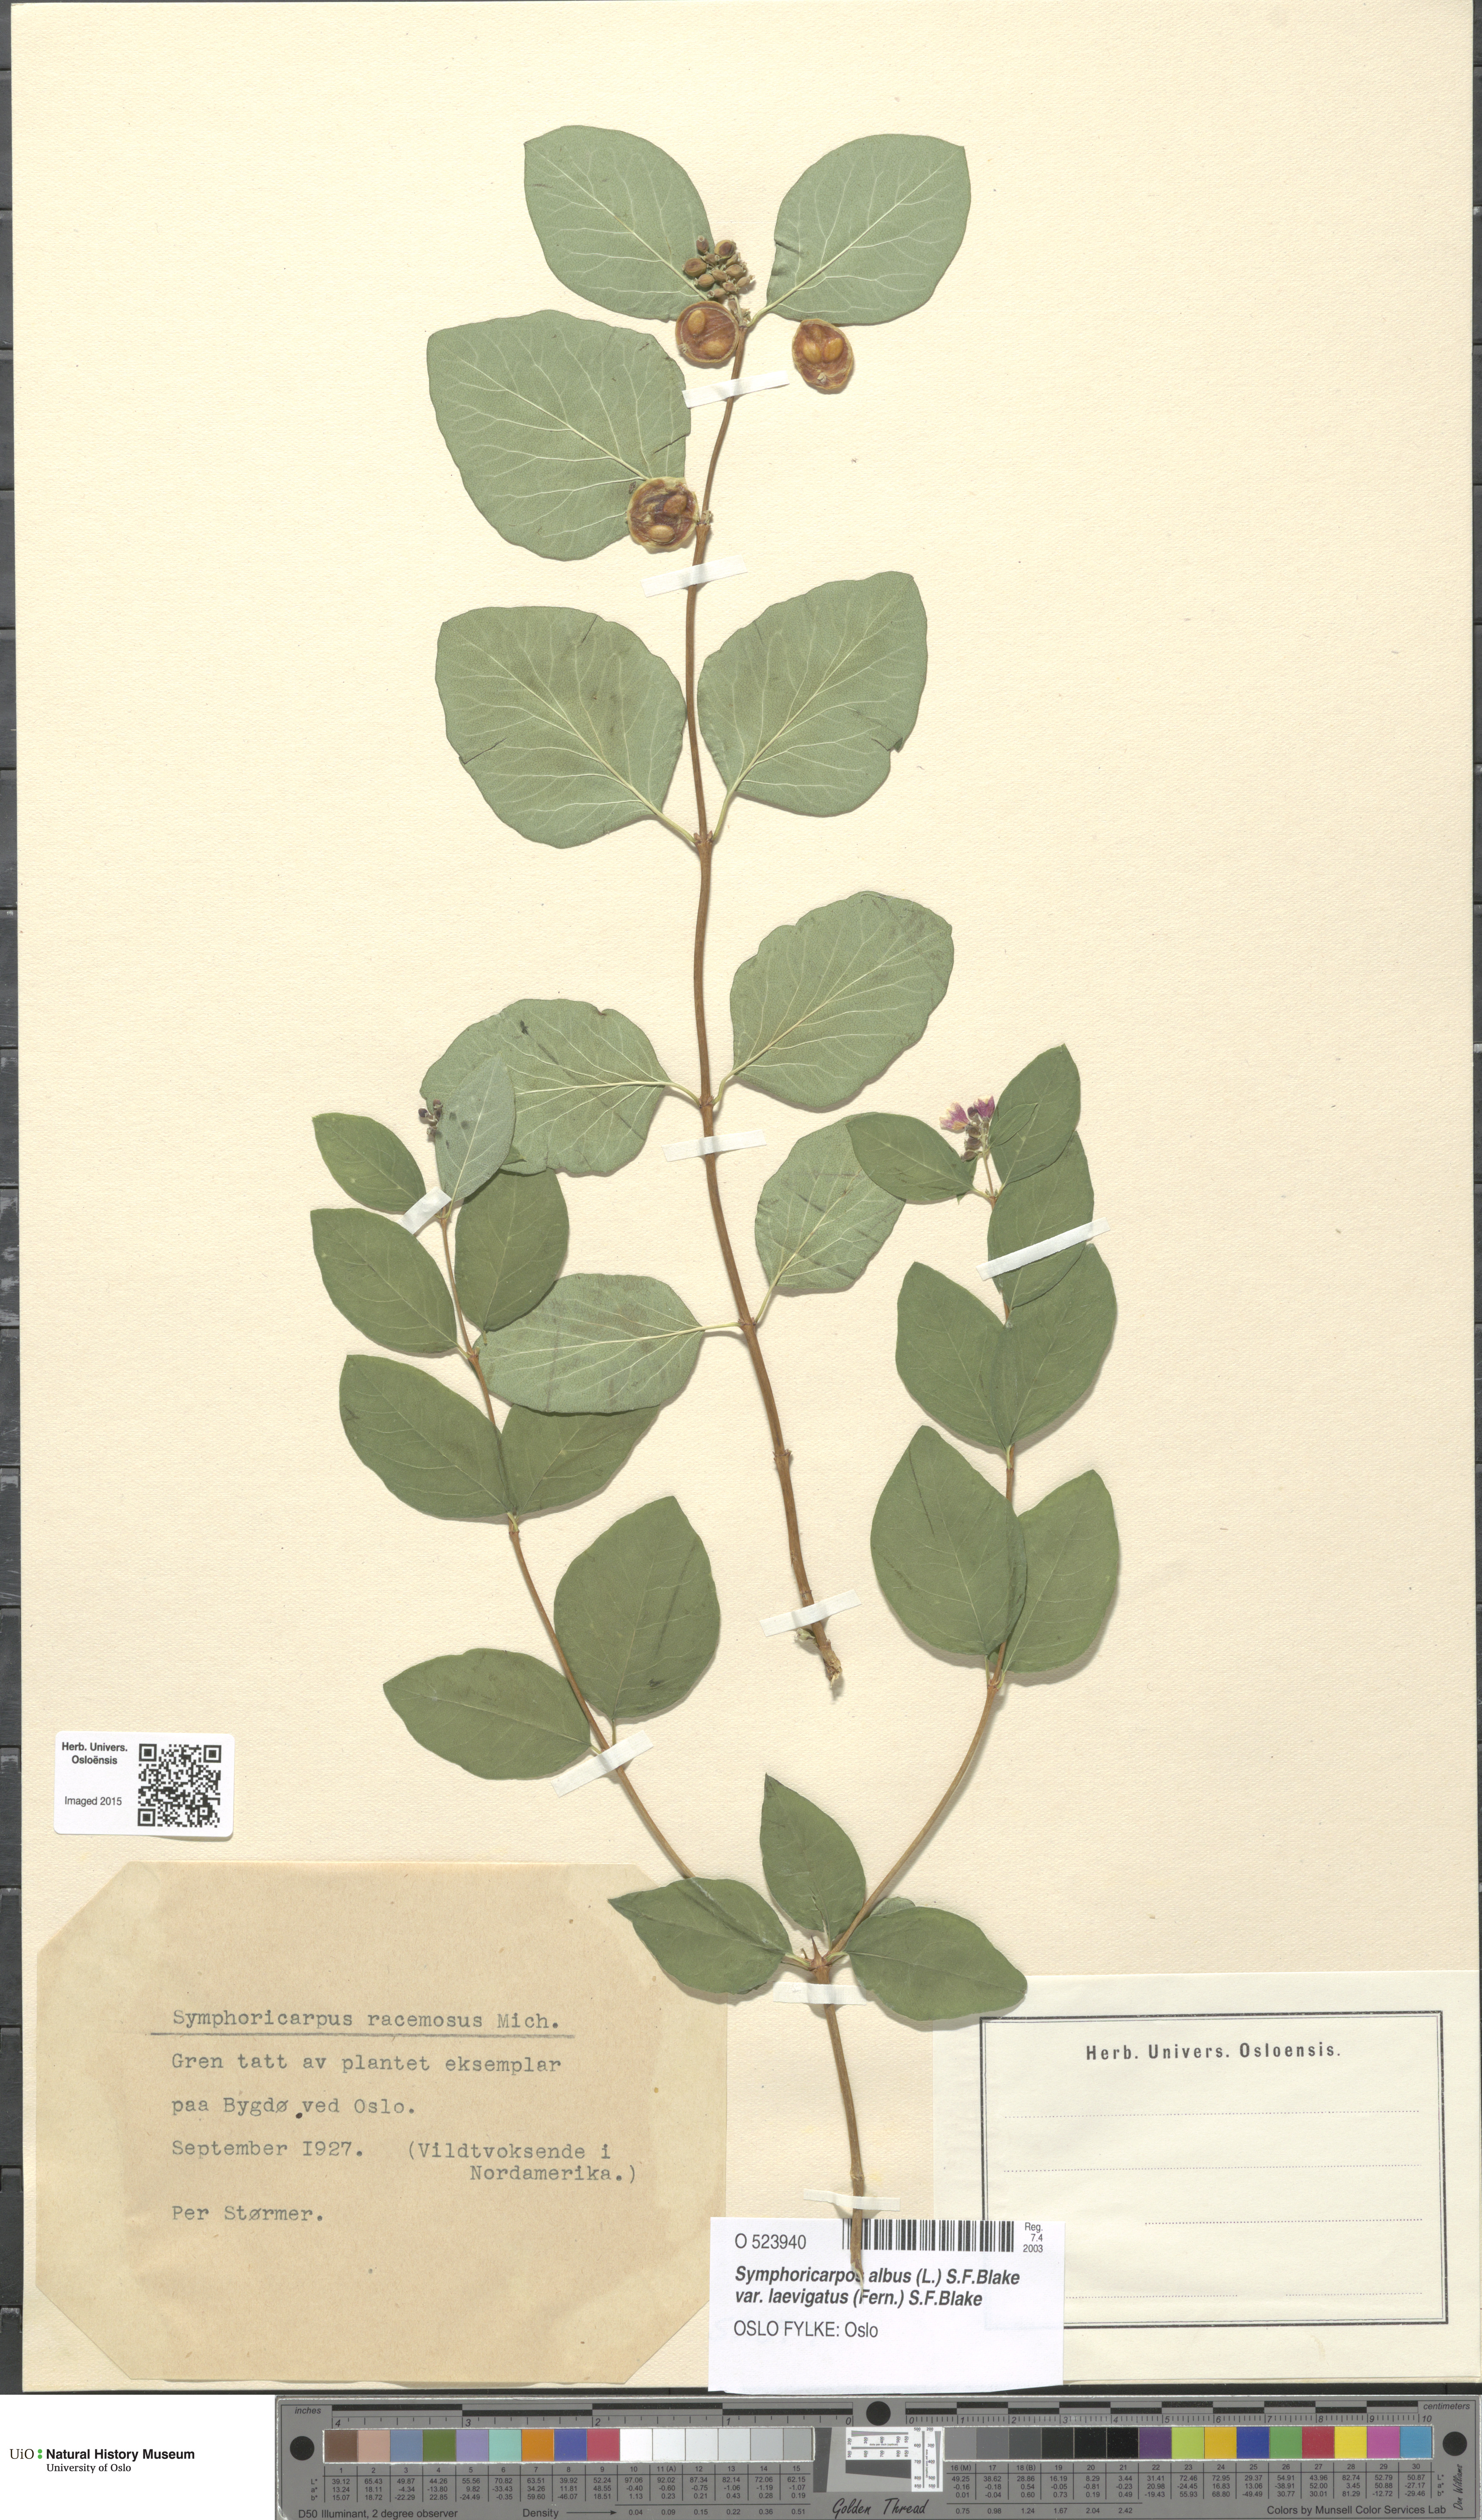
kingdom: Plantae
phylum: Tracheophyta
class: Magnoliopsida
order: Dipsacales
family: Caprifoliaceae
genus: Symphoricarpos
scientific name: Symphoricarpos albus
